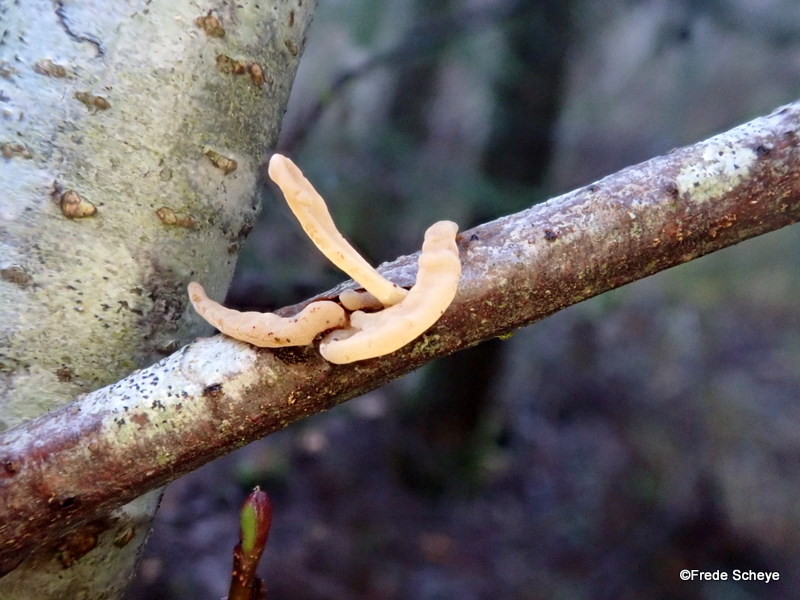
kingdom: Fungi
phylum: Basidiomycota
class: Agaricomycetes
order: Agaricales
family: Typhulaceae
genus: Typhula
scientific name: Typhula contorta
